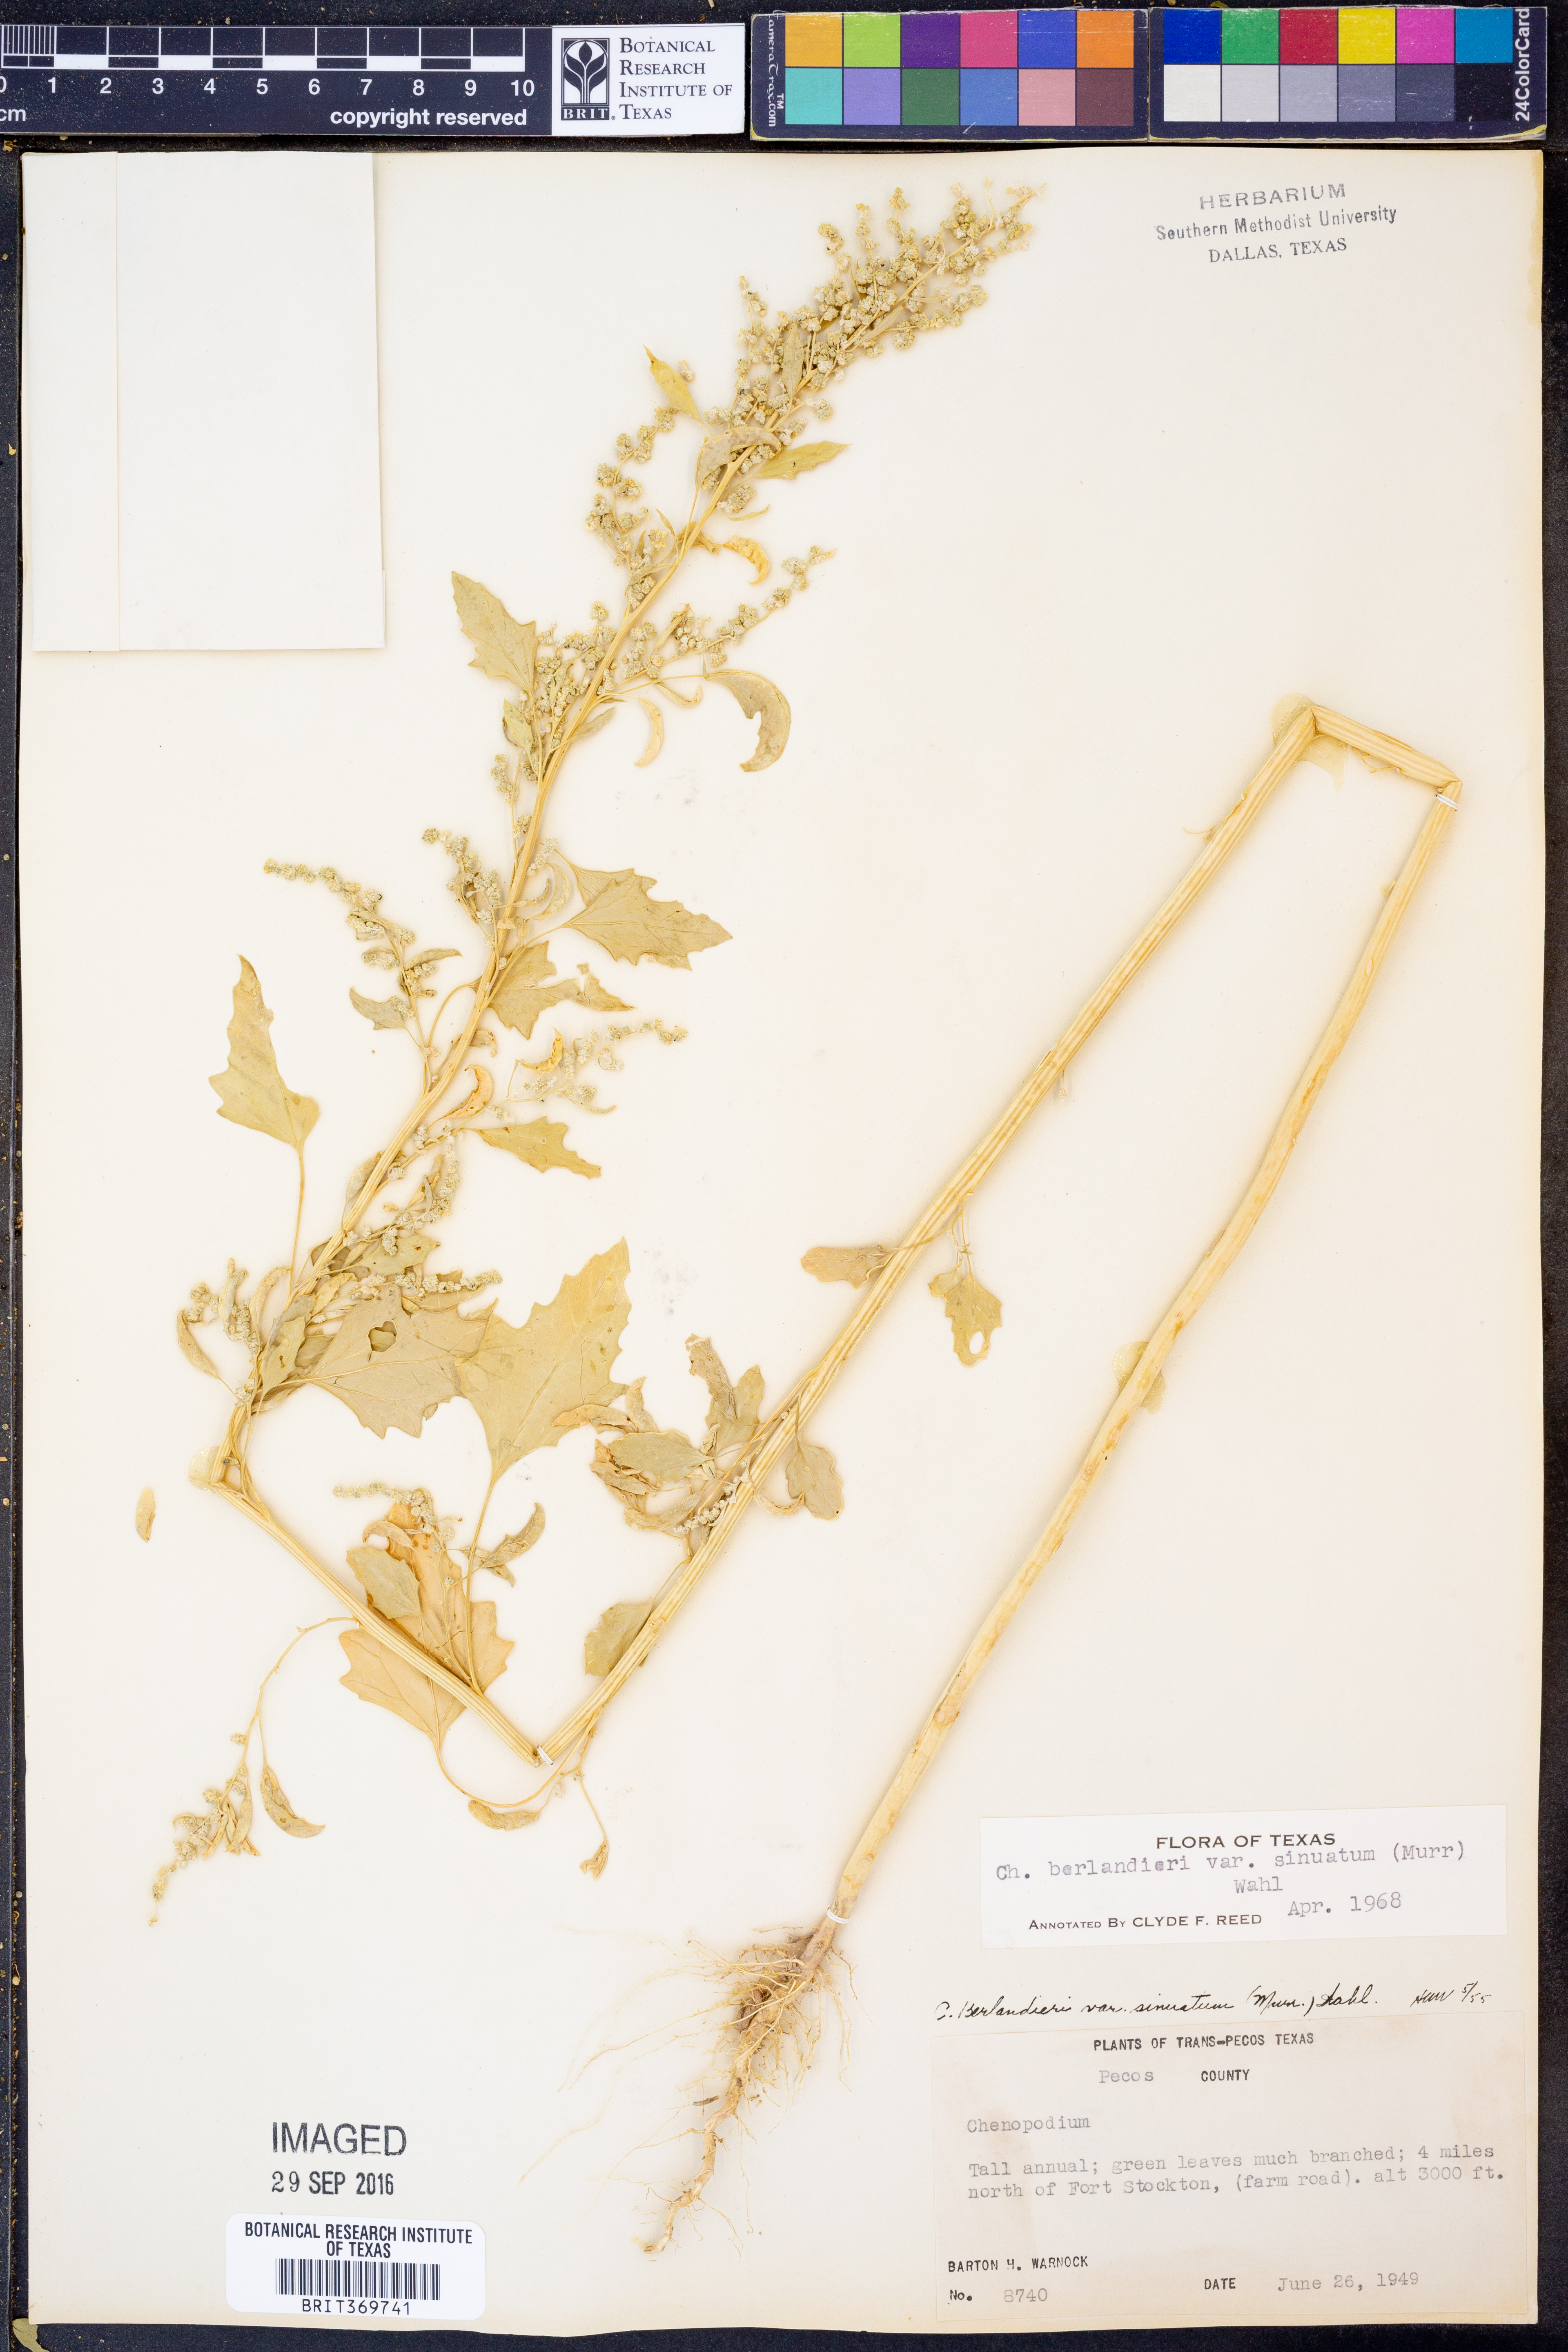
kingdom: Plantae
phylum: Tracheophyta
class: Magnoliopsida
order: Caryophyllales
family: Amaranthaceae
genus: Chenopodium
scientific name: Chenopodium berlandieri
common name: Pit-seed goosefoot
